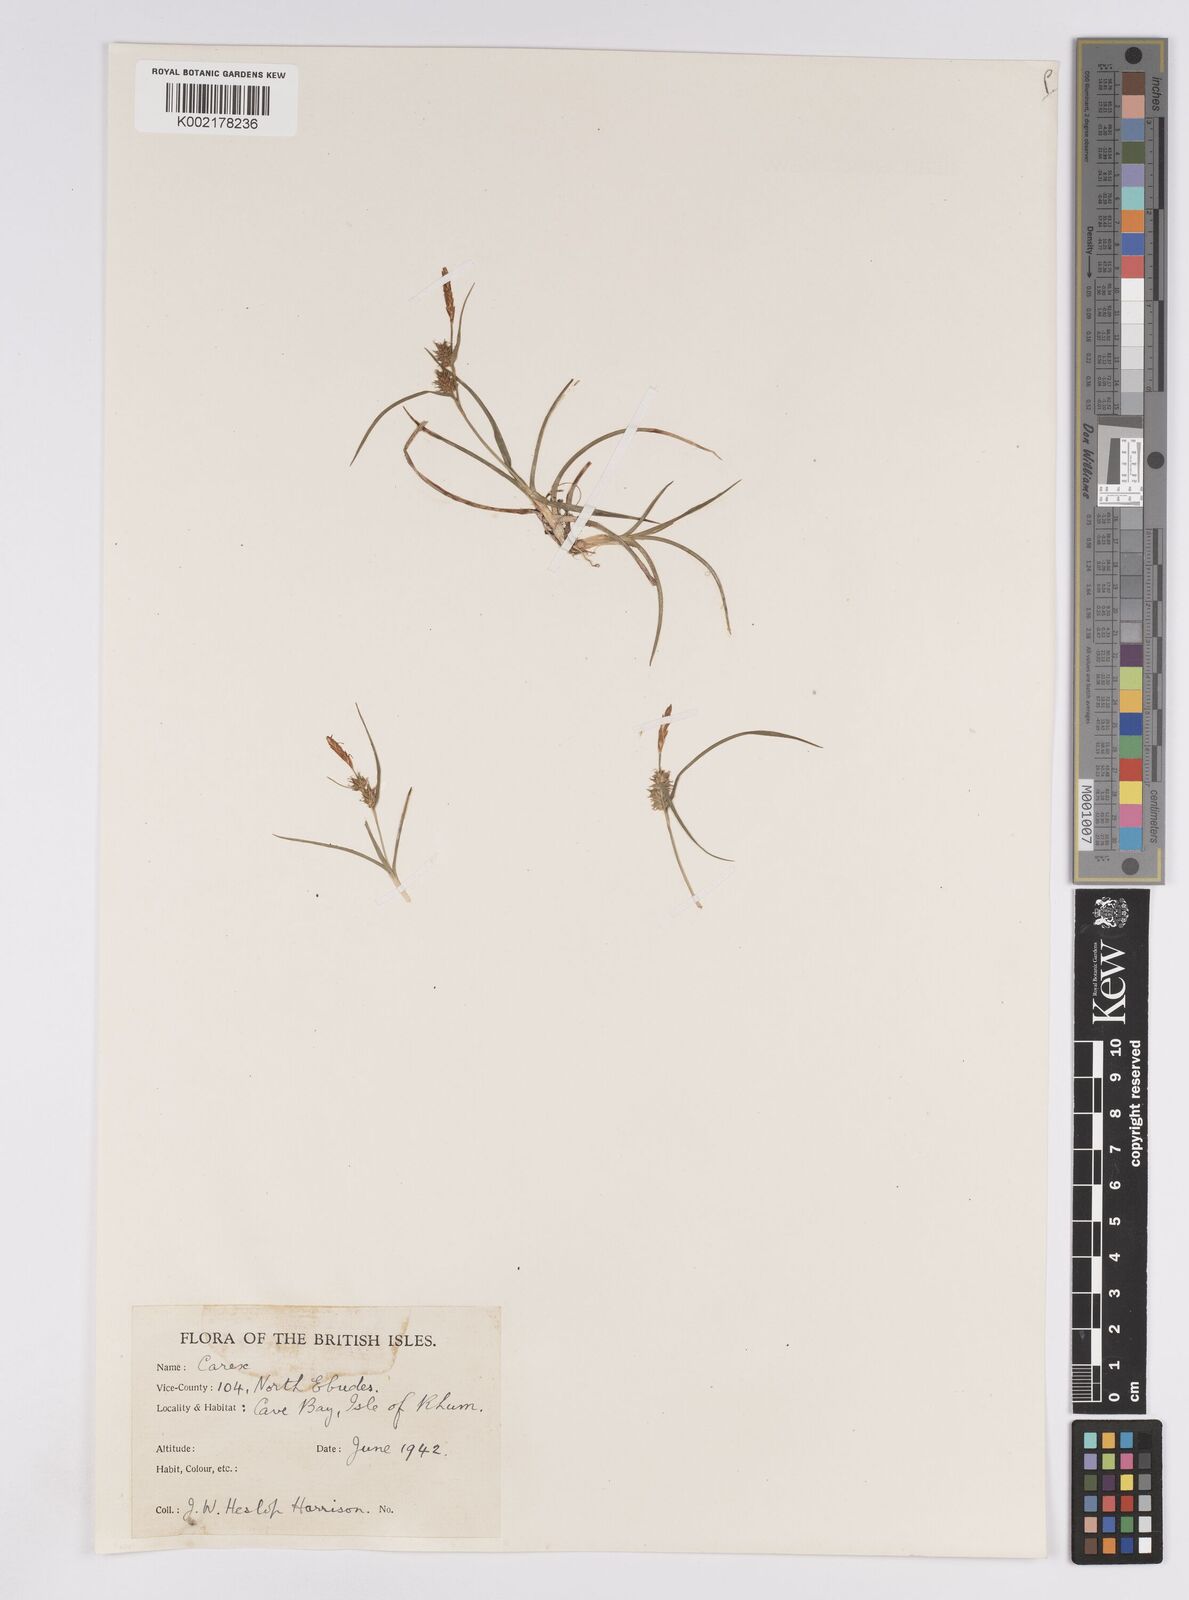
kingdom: Plantae
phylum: Tracheophyta
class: Liliopsida
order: Poales
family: Cyperaceae
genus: Carex
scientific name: Carex demissa
